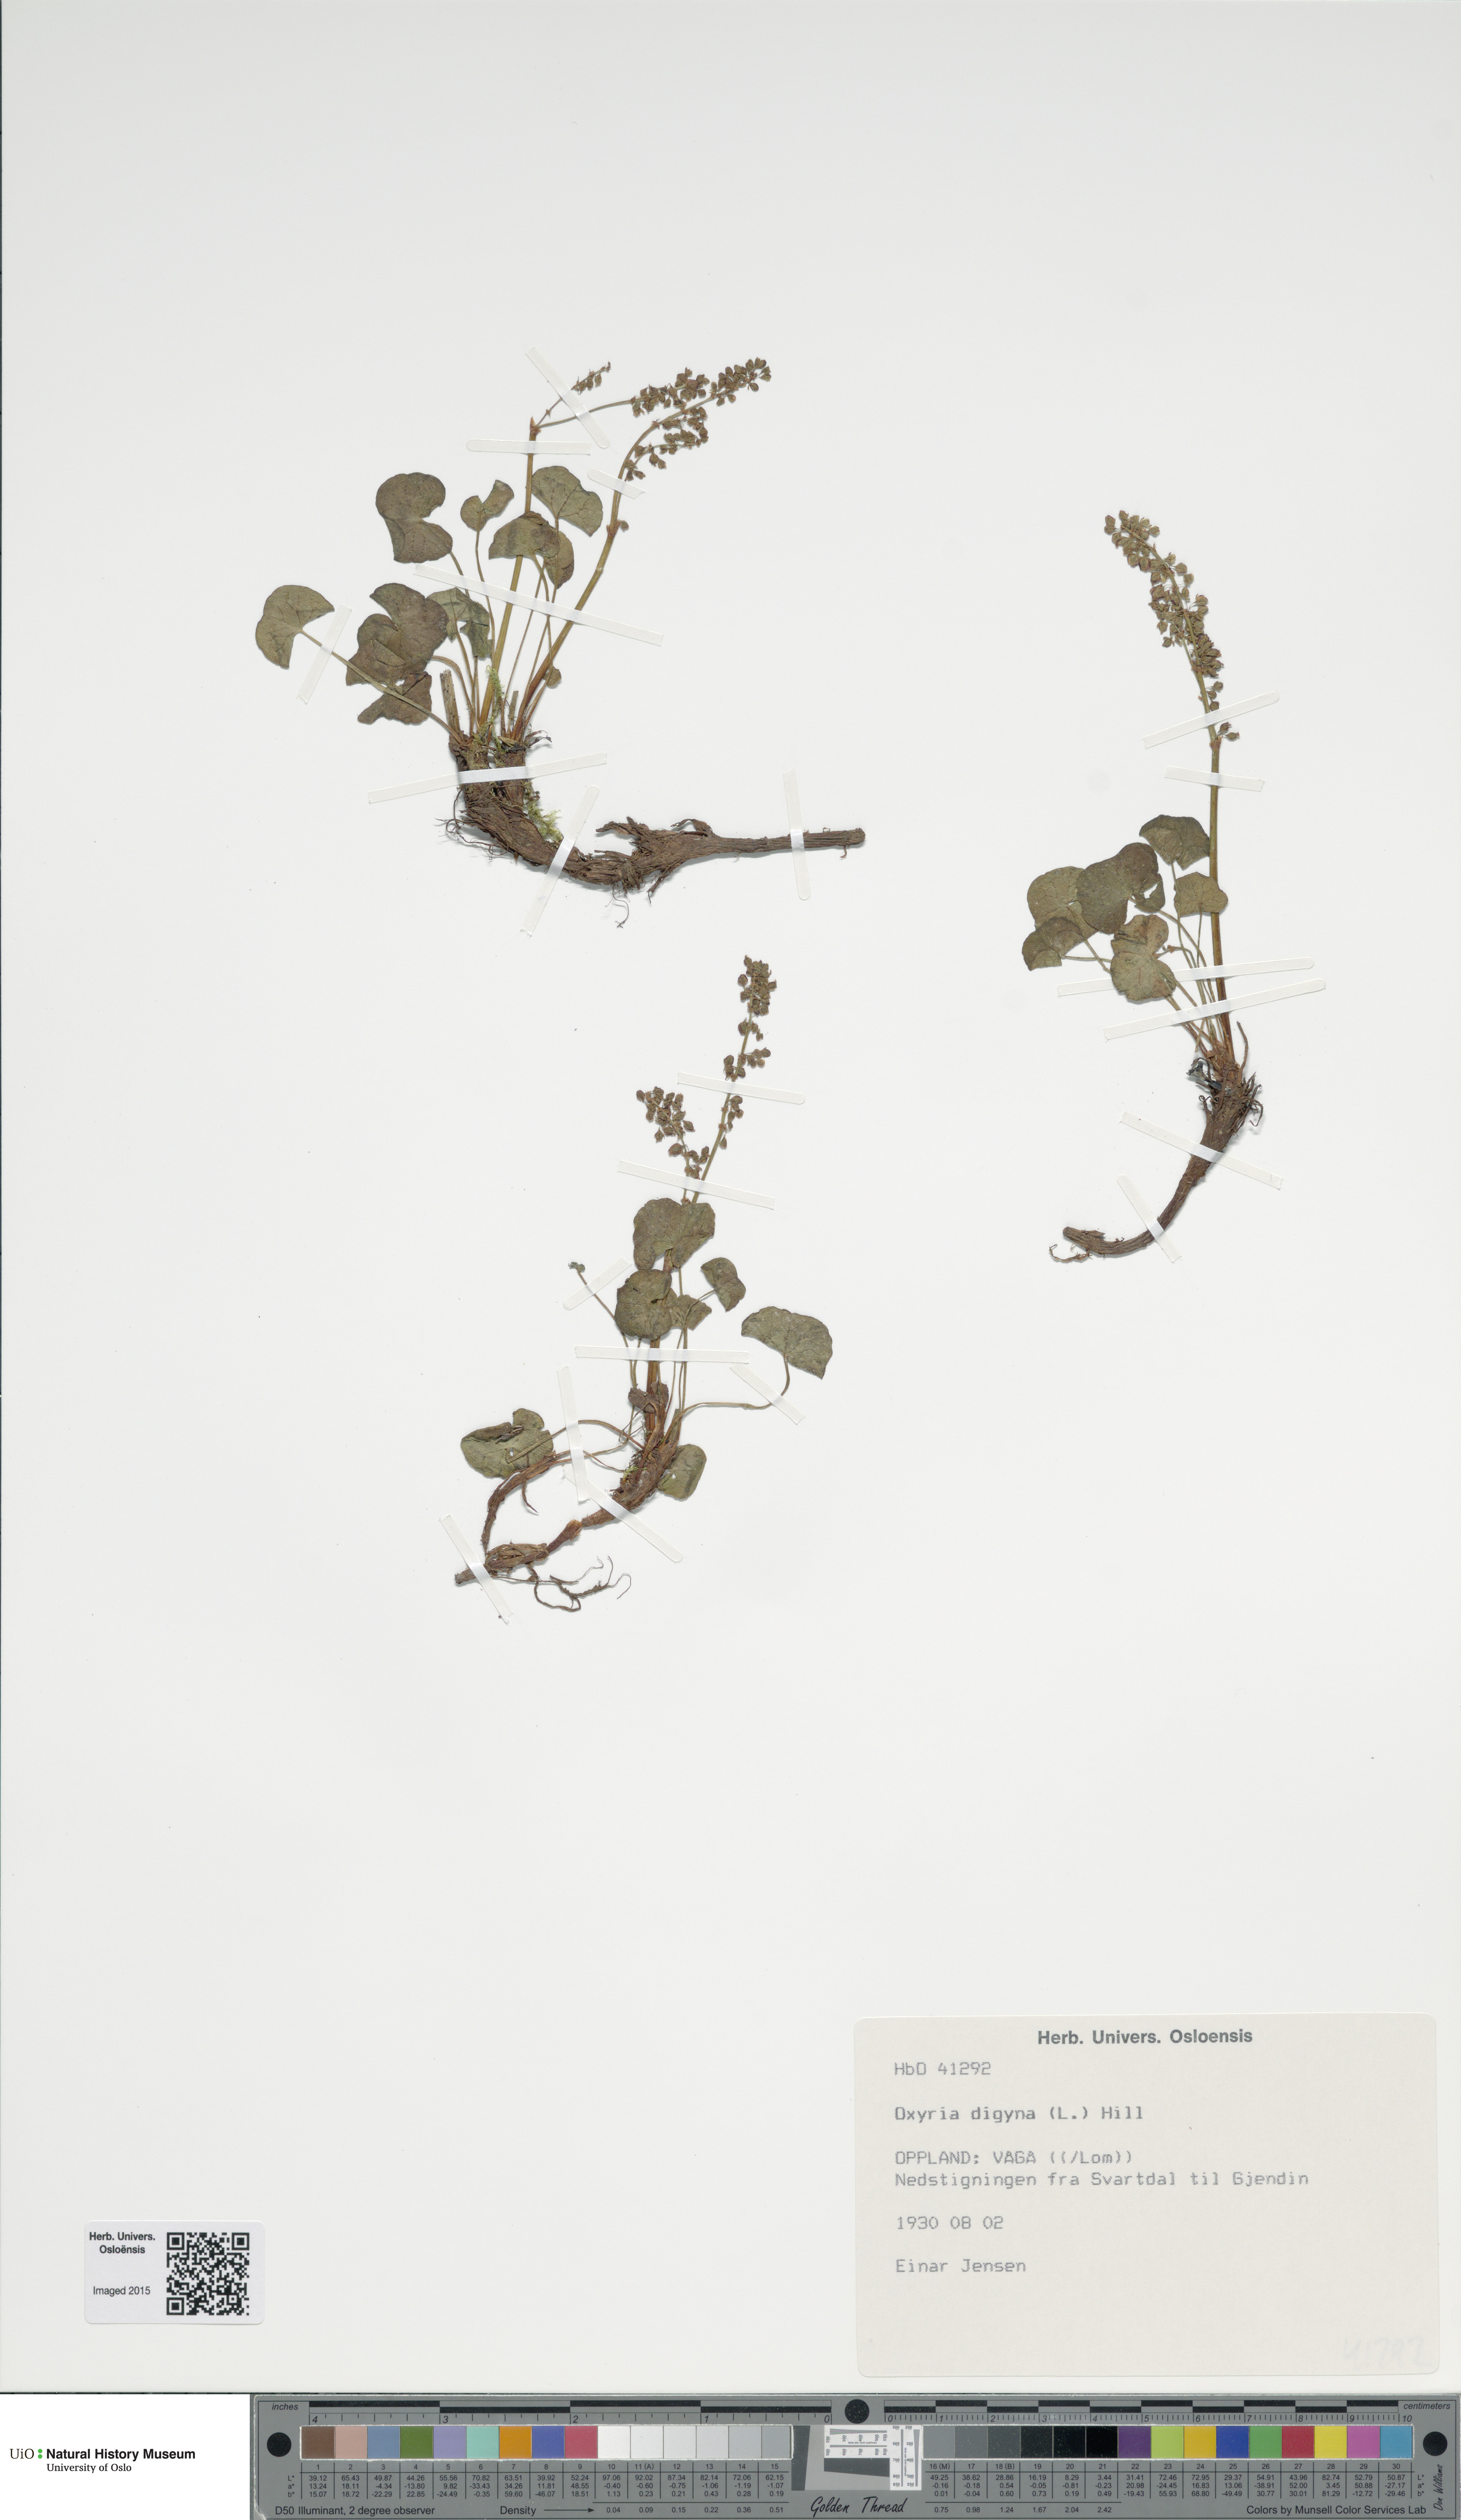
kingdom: Plantae
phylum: Tracheophyta
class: Magnoliopsida
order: Caryophyllales
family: Polygonaceae
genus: Oxyria
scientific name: Oxyria digyna
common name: Alpine mountain-sorrel
